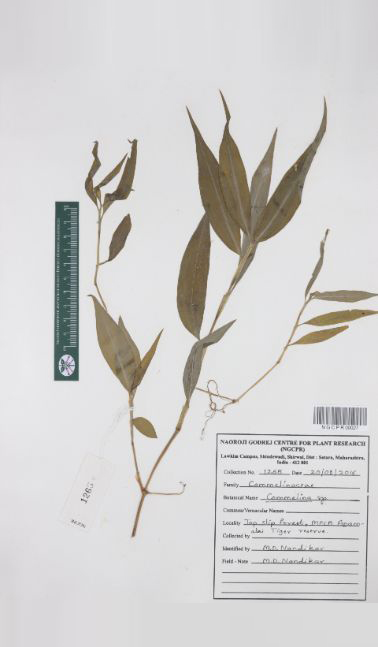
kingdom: Plantae
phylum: Tracheophyta
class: Liliopsida
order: Commelinales
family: Commelinaceae
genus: Commelina
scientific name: Commelina
